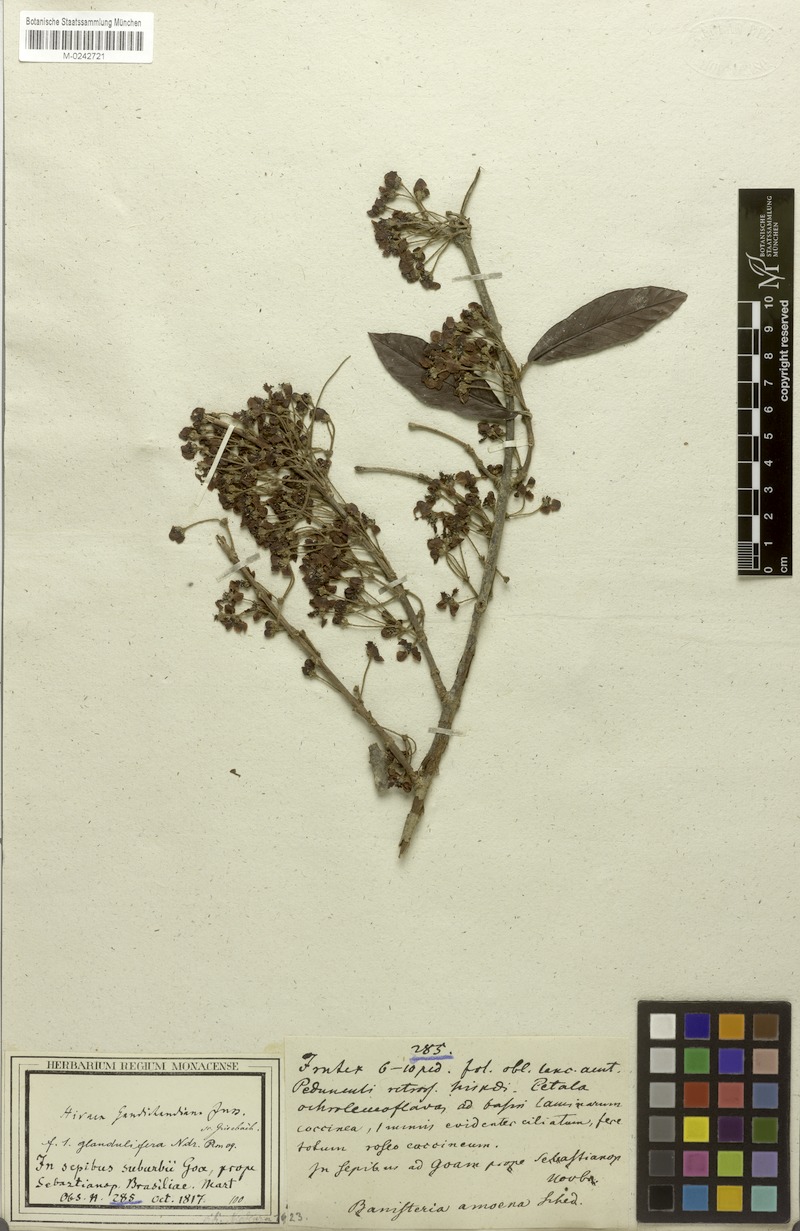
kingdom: Plantae
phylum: Tracheophyta
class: Magnoliopsida
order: Malpighiales
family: Malpighiaceae
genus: Hiraea
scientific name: Hiraea gaudichaudiana
